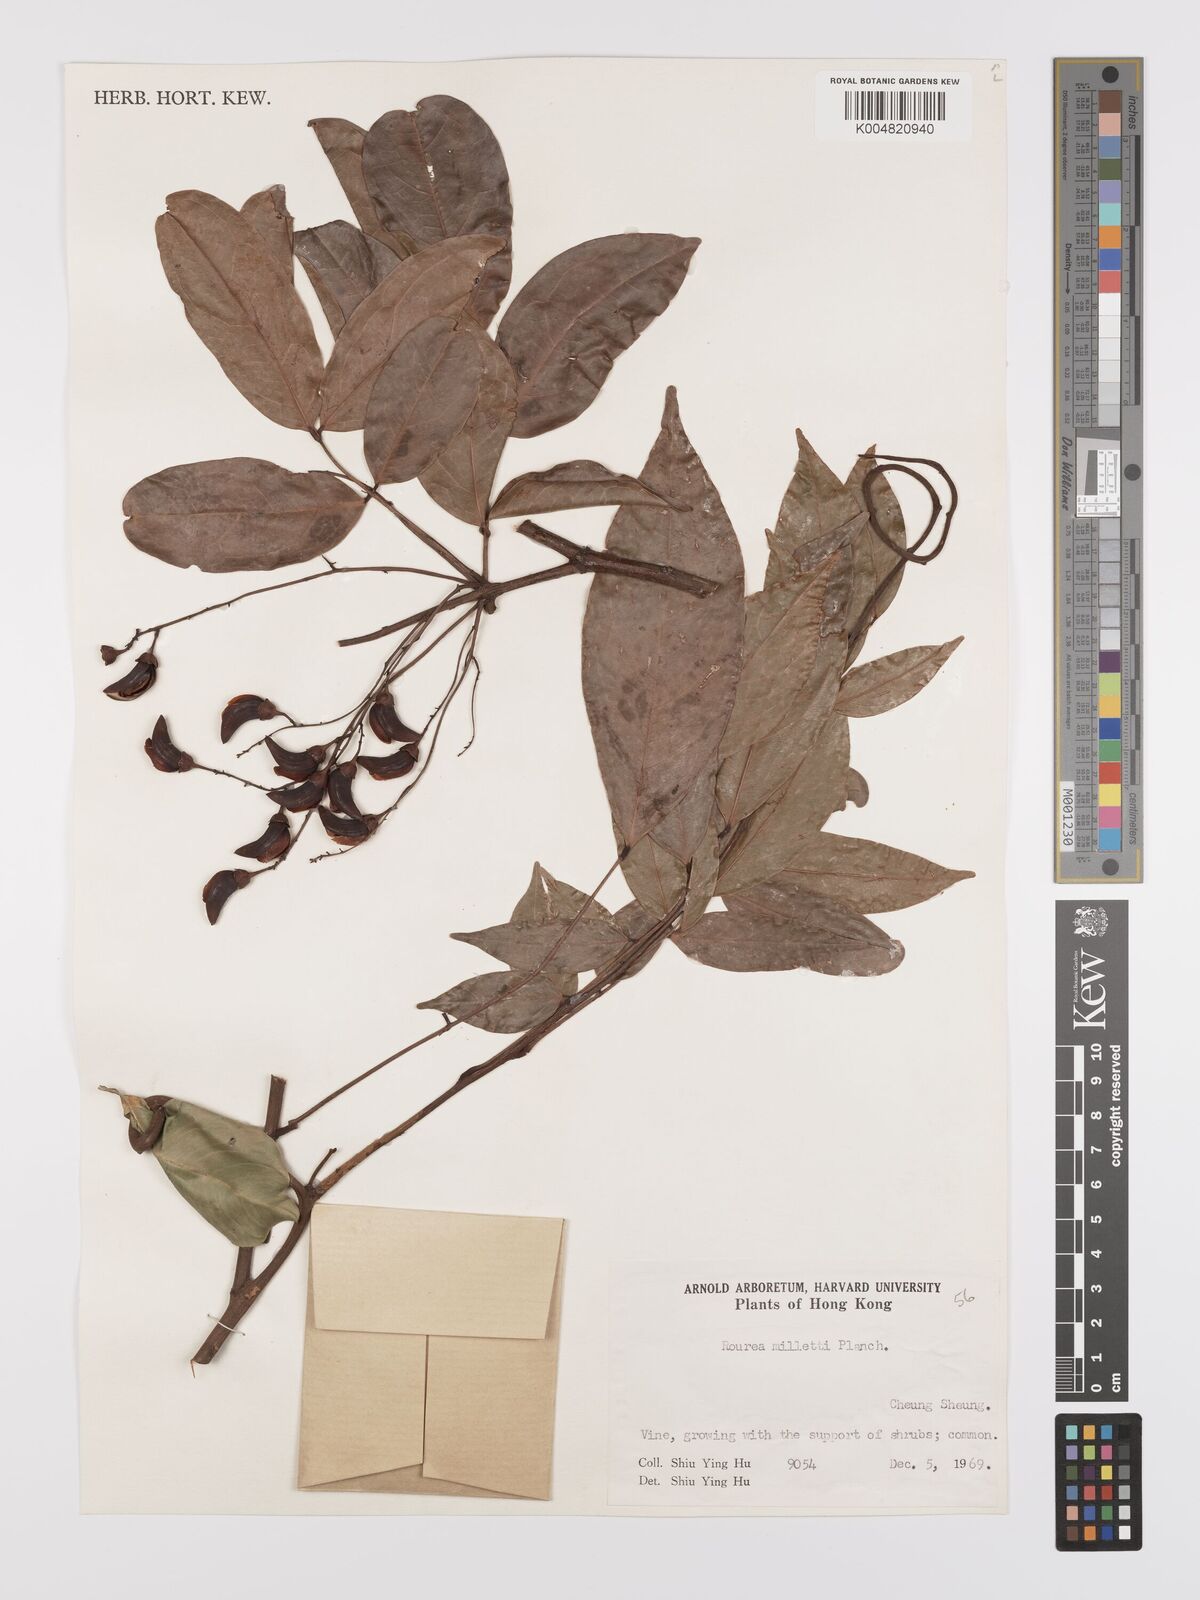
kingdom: Plantae
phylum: Tracheophyta
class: Magnoliopsida
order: Oxalidales
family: Connaraceae
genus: Rourea
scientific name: Rourea
